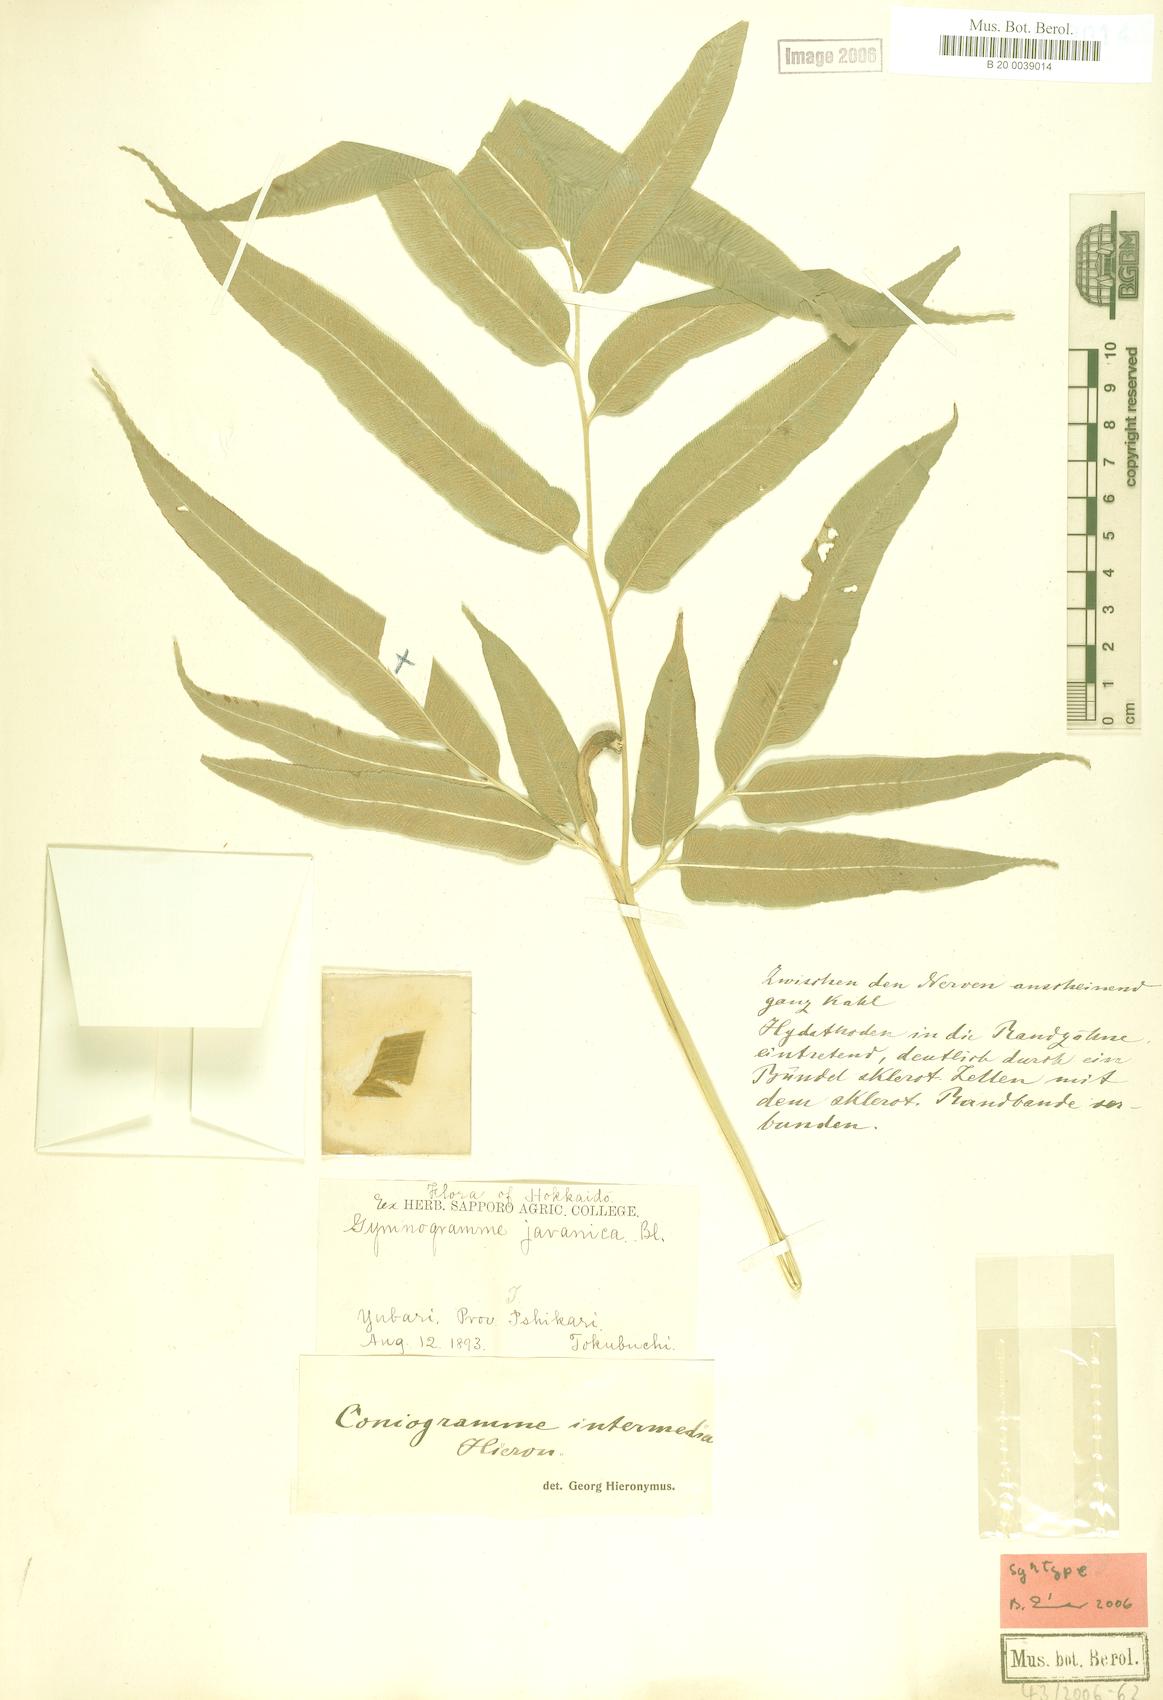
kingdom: Plantae
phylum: Tracheophyta
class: Polypodiopsida
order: Polypodiales
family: Pteridaceae
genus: Coniogramme
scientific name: Coniogramme intermedia
